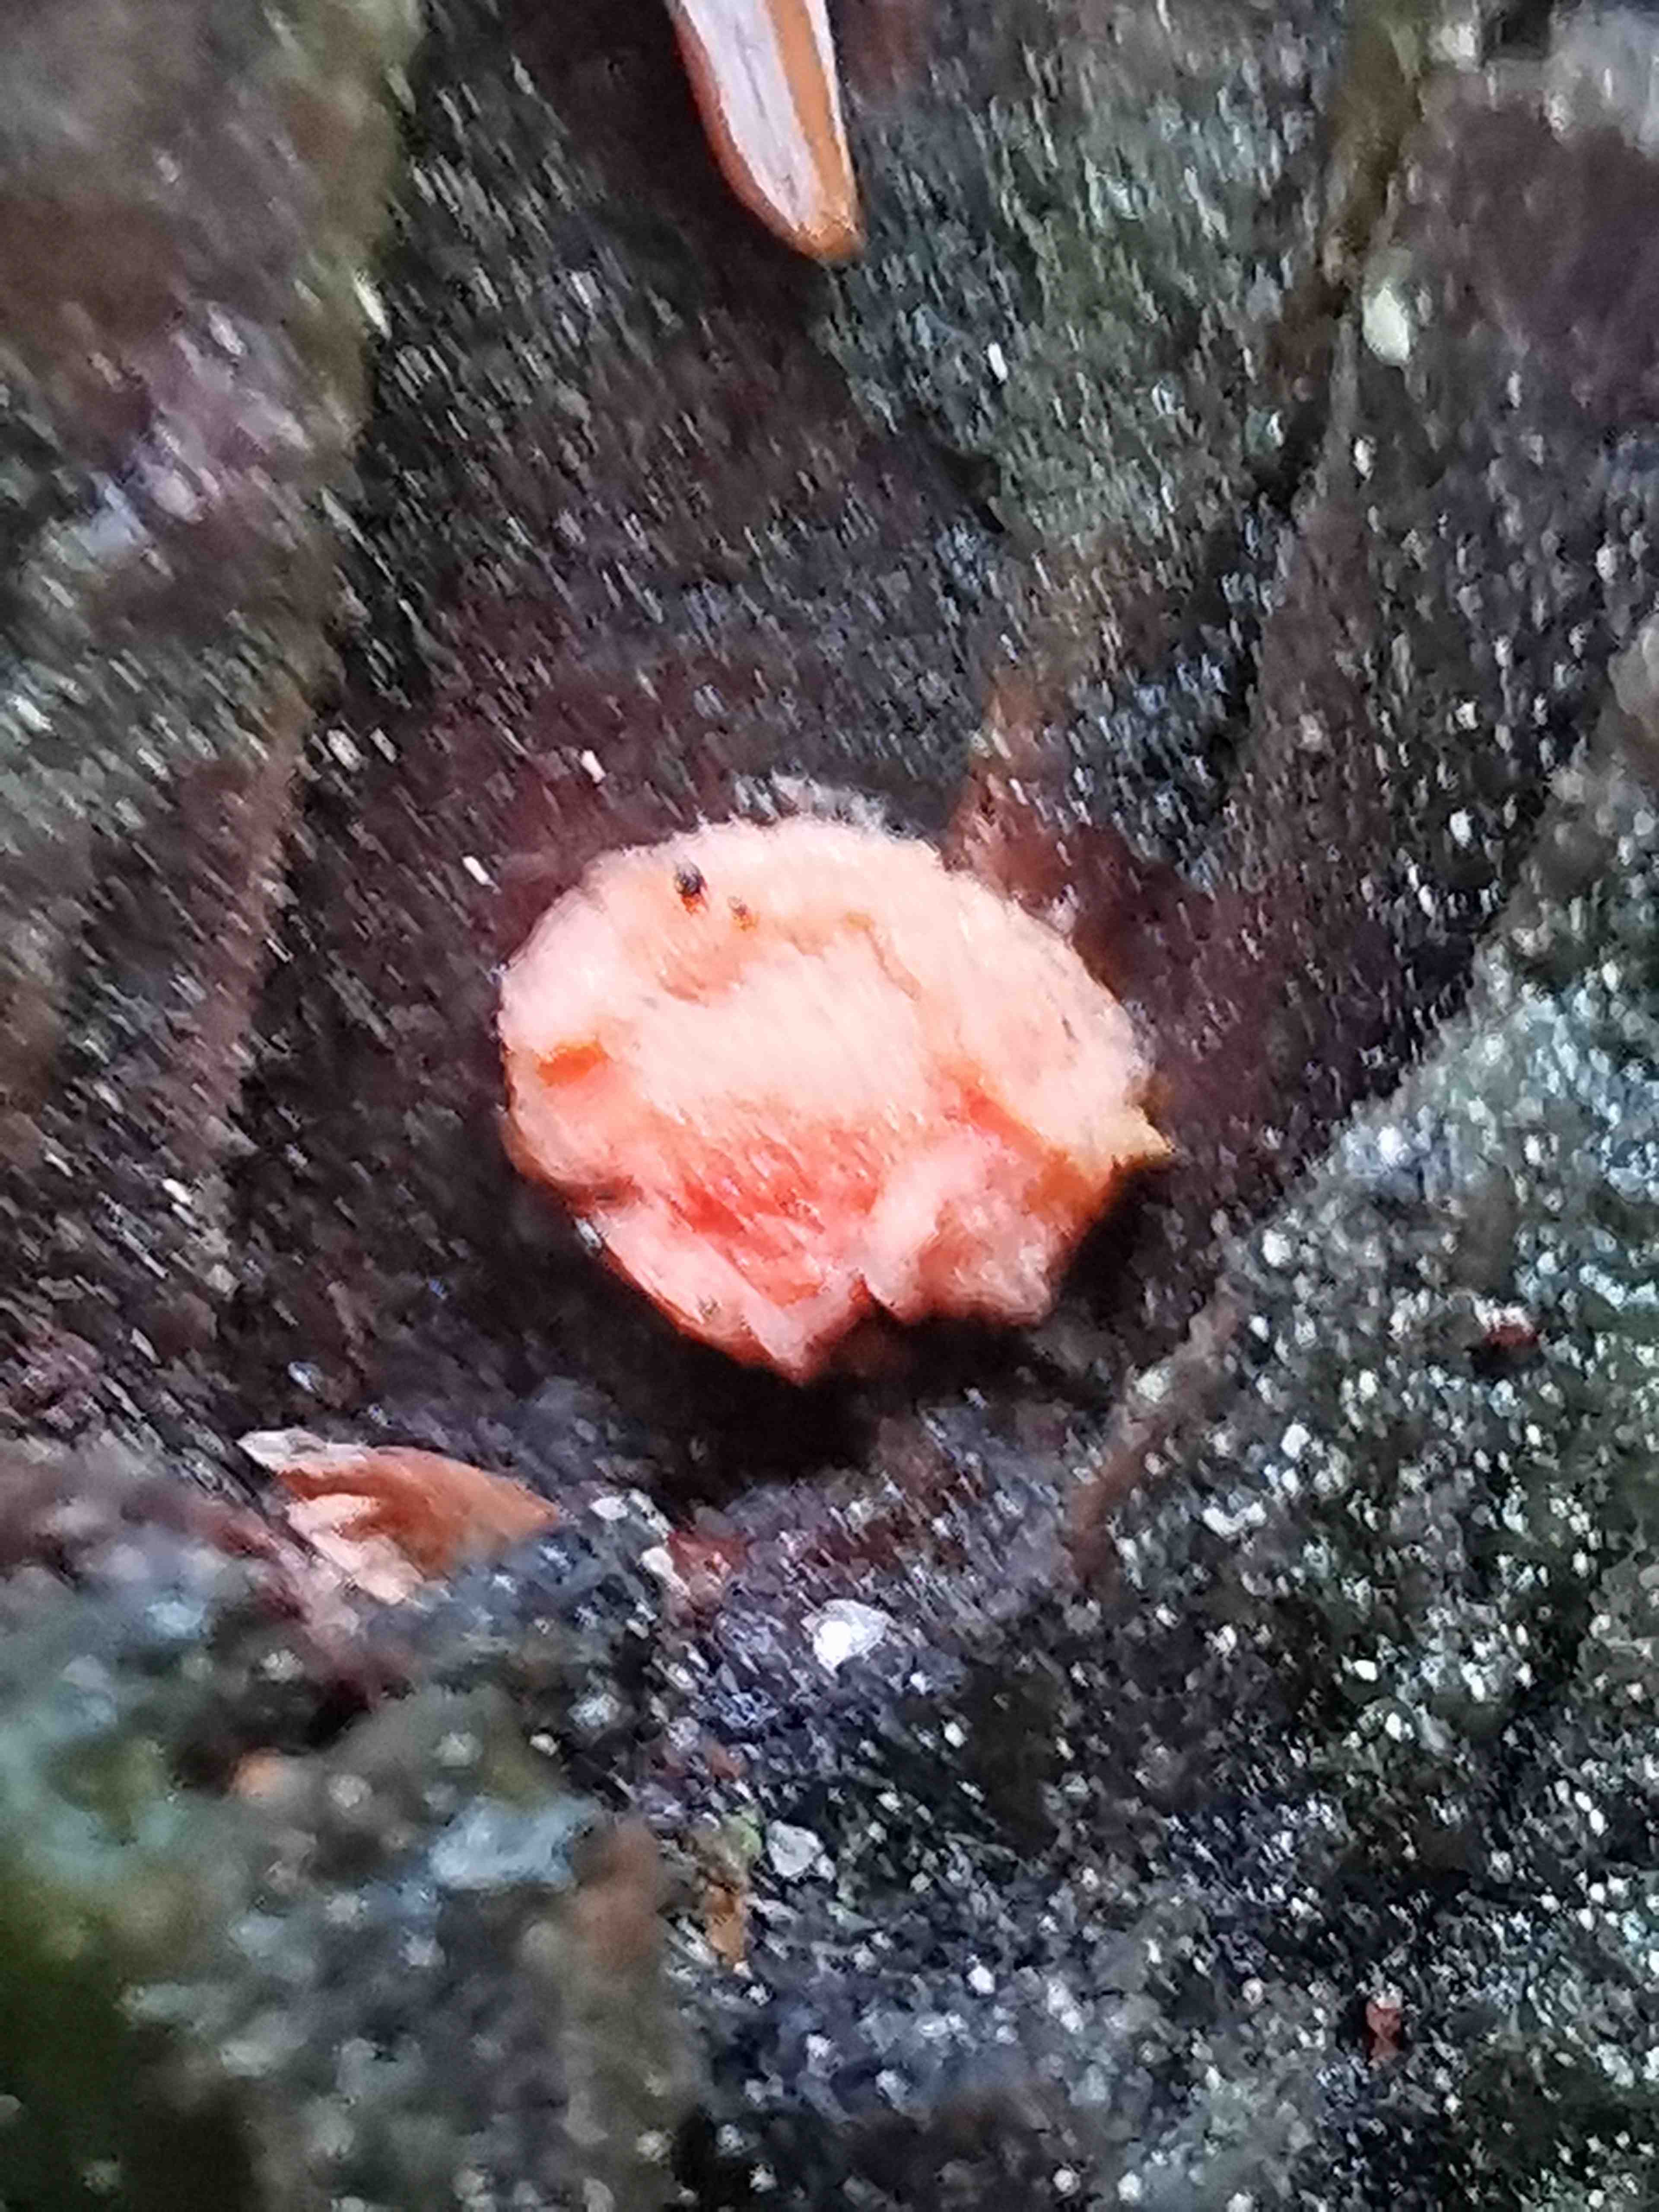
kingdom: Protozoa
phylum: Mycetozoa
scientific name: Mycetozoa
